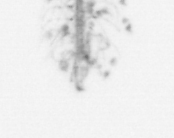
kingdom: Chromista
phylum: Ochrophyta
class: Bacillariophyceae
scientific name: Bacillariophyceae
